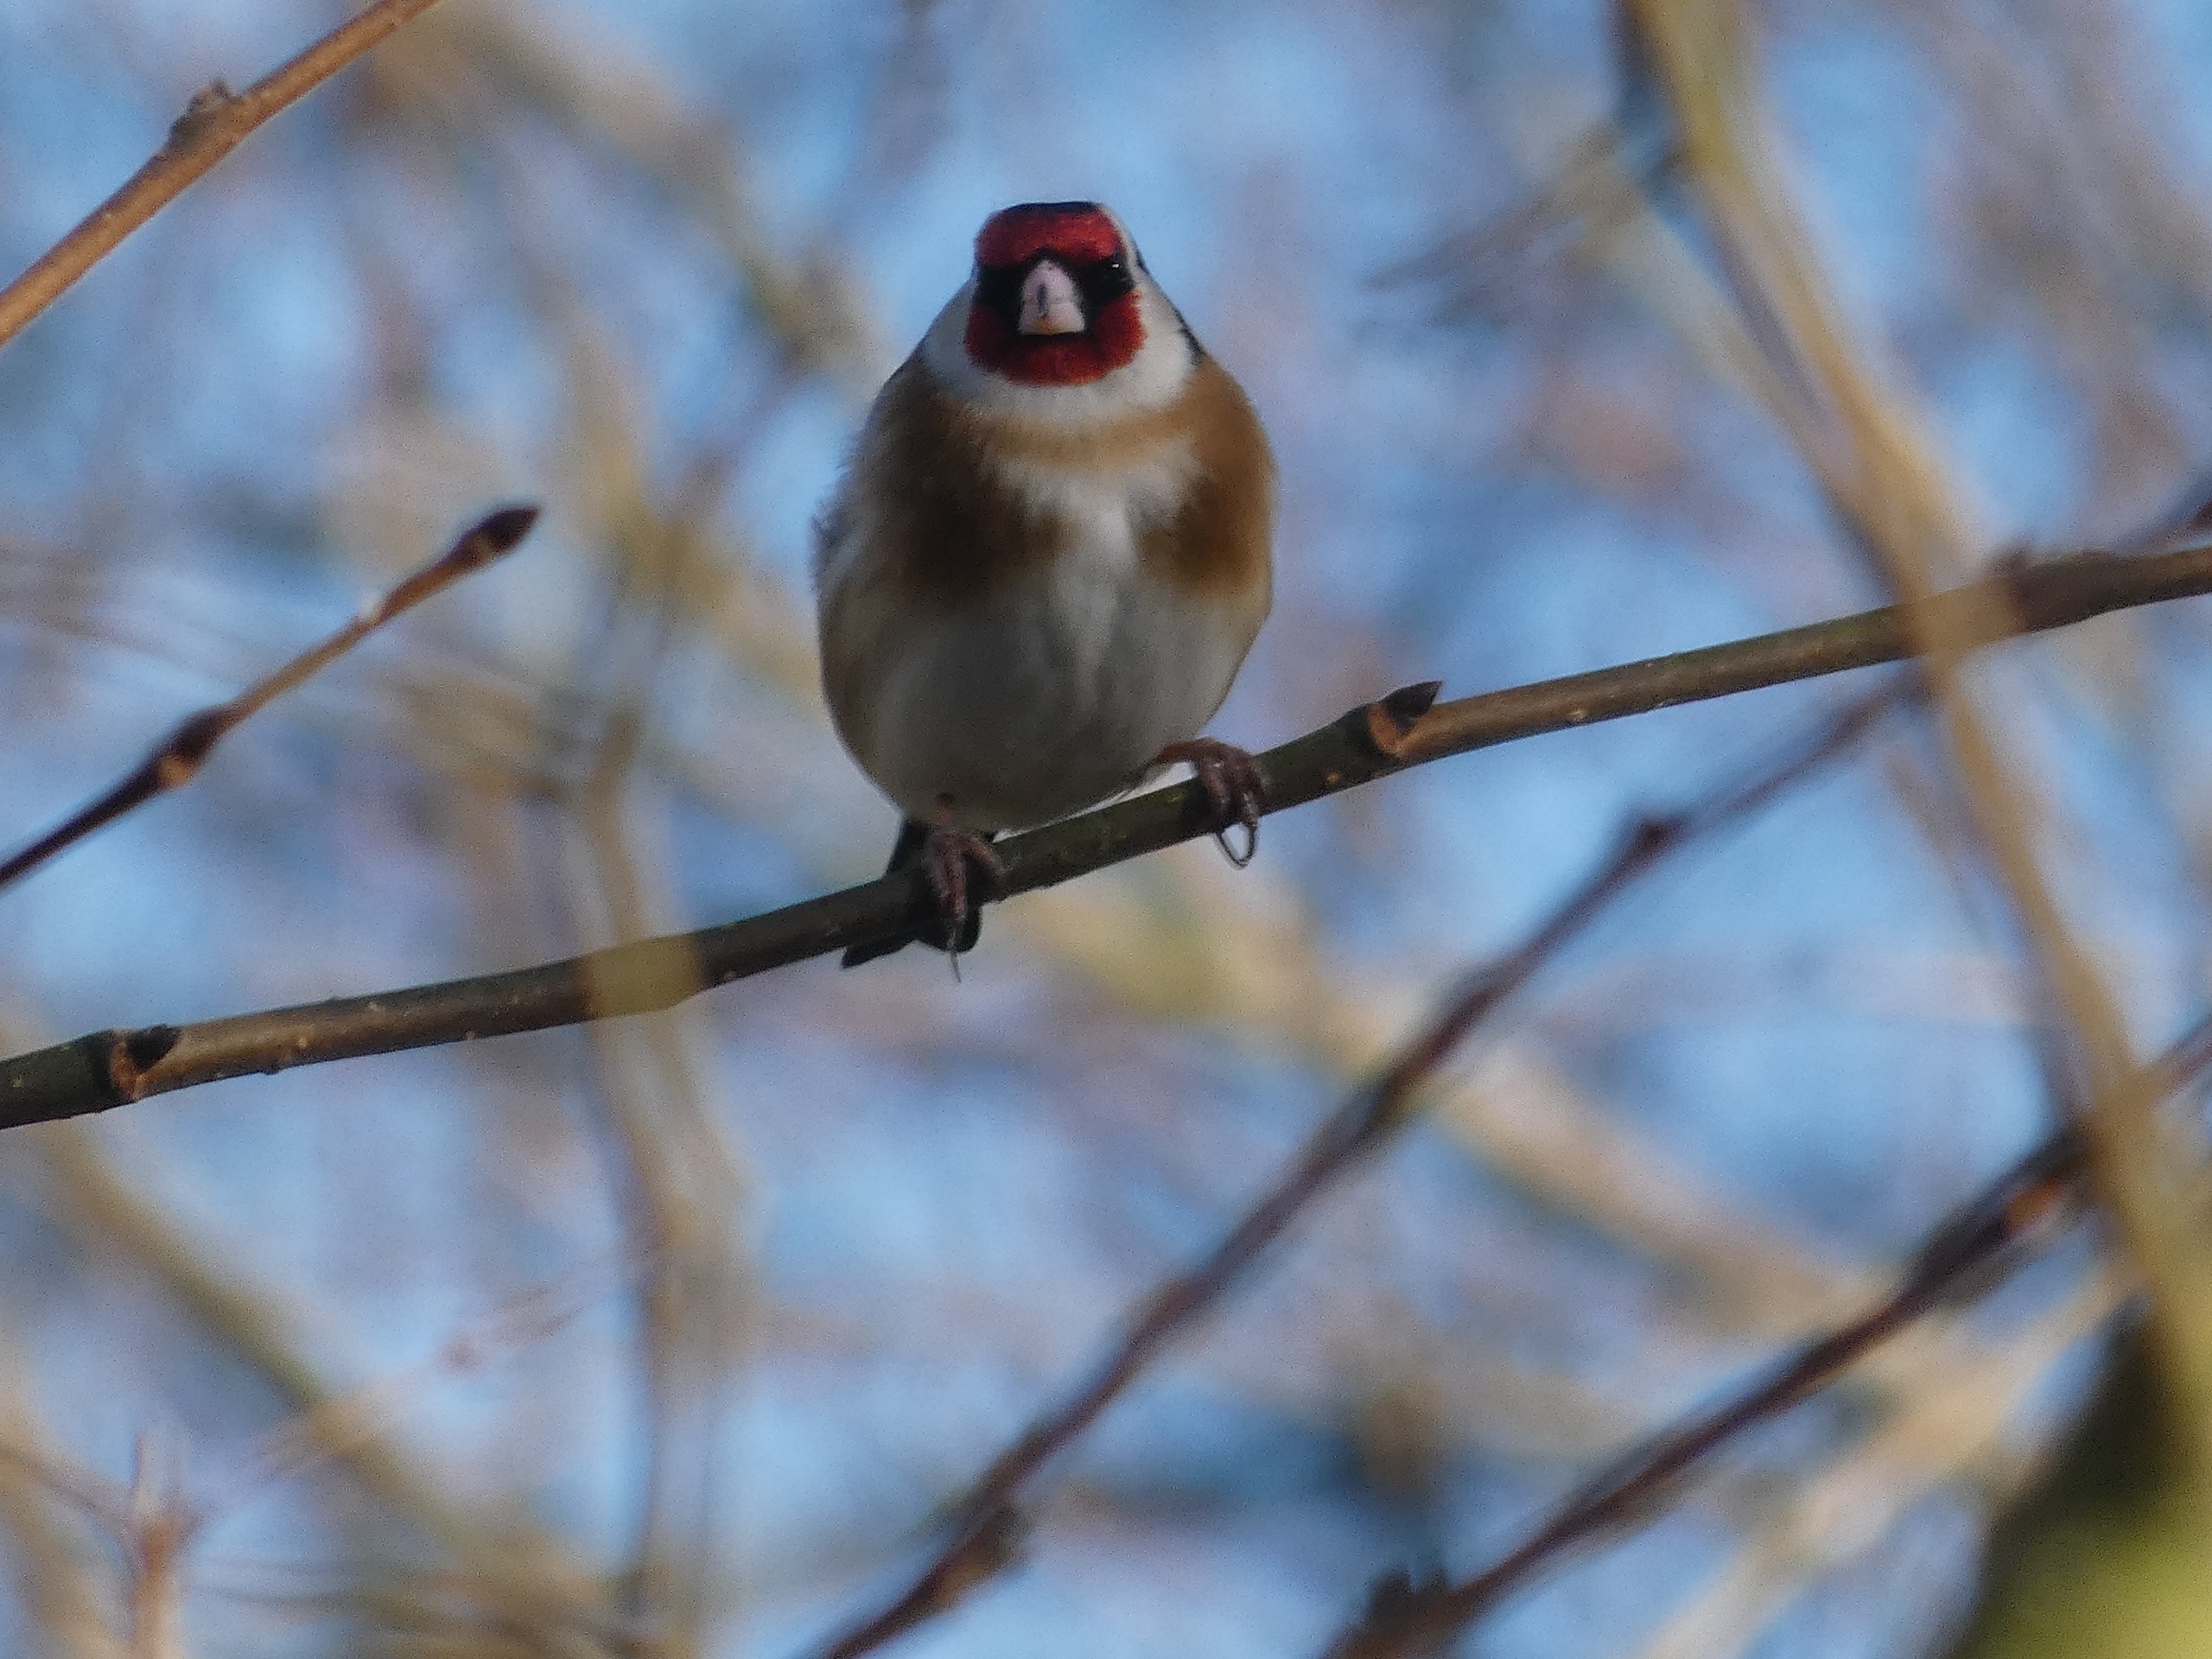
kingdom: Animalia
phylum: Chordata
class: Aves
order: Passeriformes
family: Fringillidae
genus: Carduelis
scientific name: Carduelis carduelis
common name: Stillits
